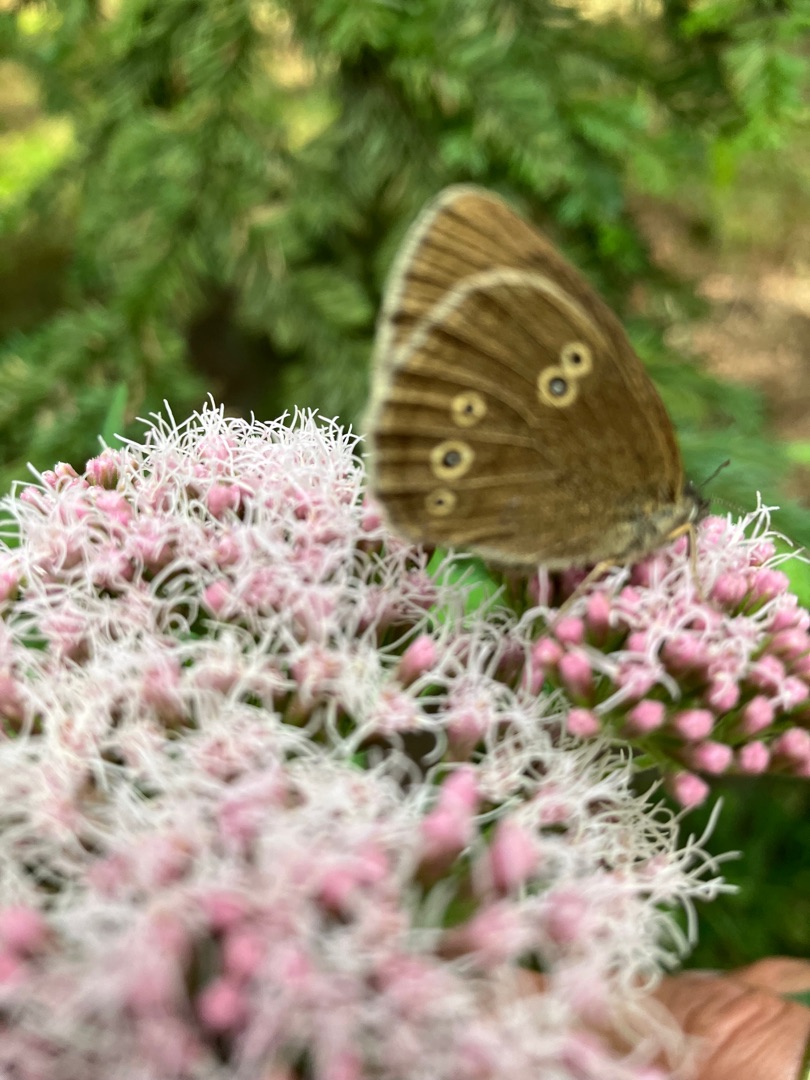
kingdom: Animalia
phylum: Arthropoda
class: Insecta
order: Lepidoptera
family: Nymphalidae
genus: Aphantopus
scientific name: Aphantopus hyperantus
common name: Engrandøje
